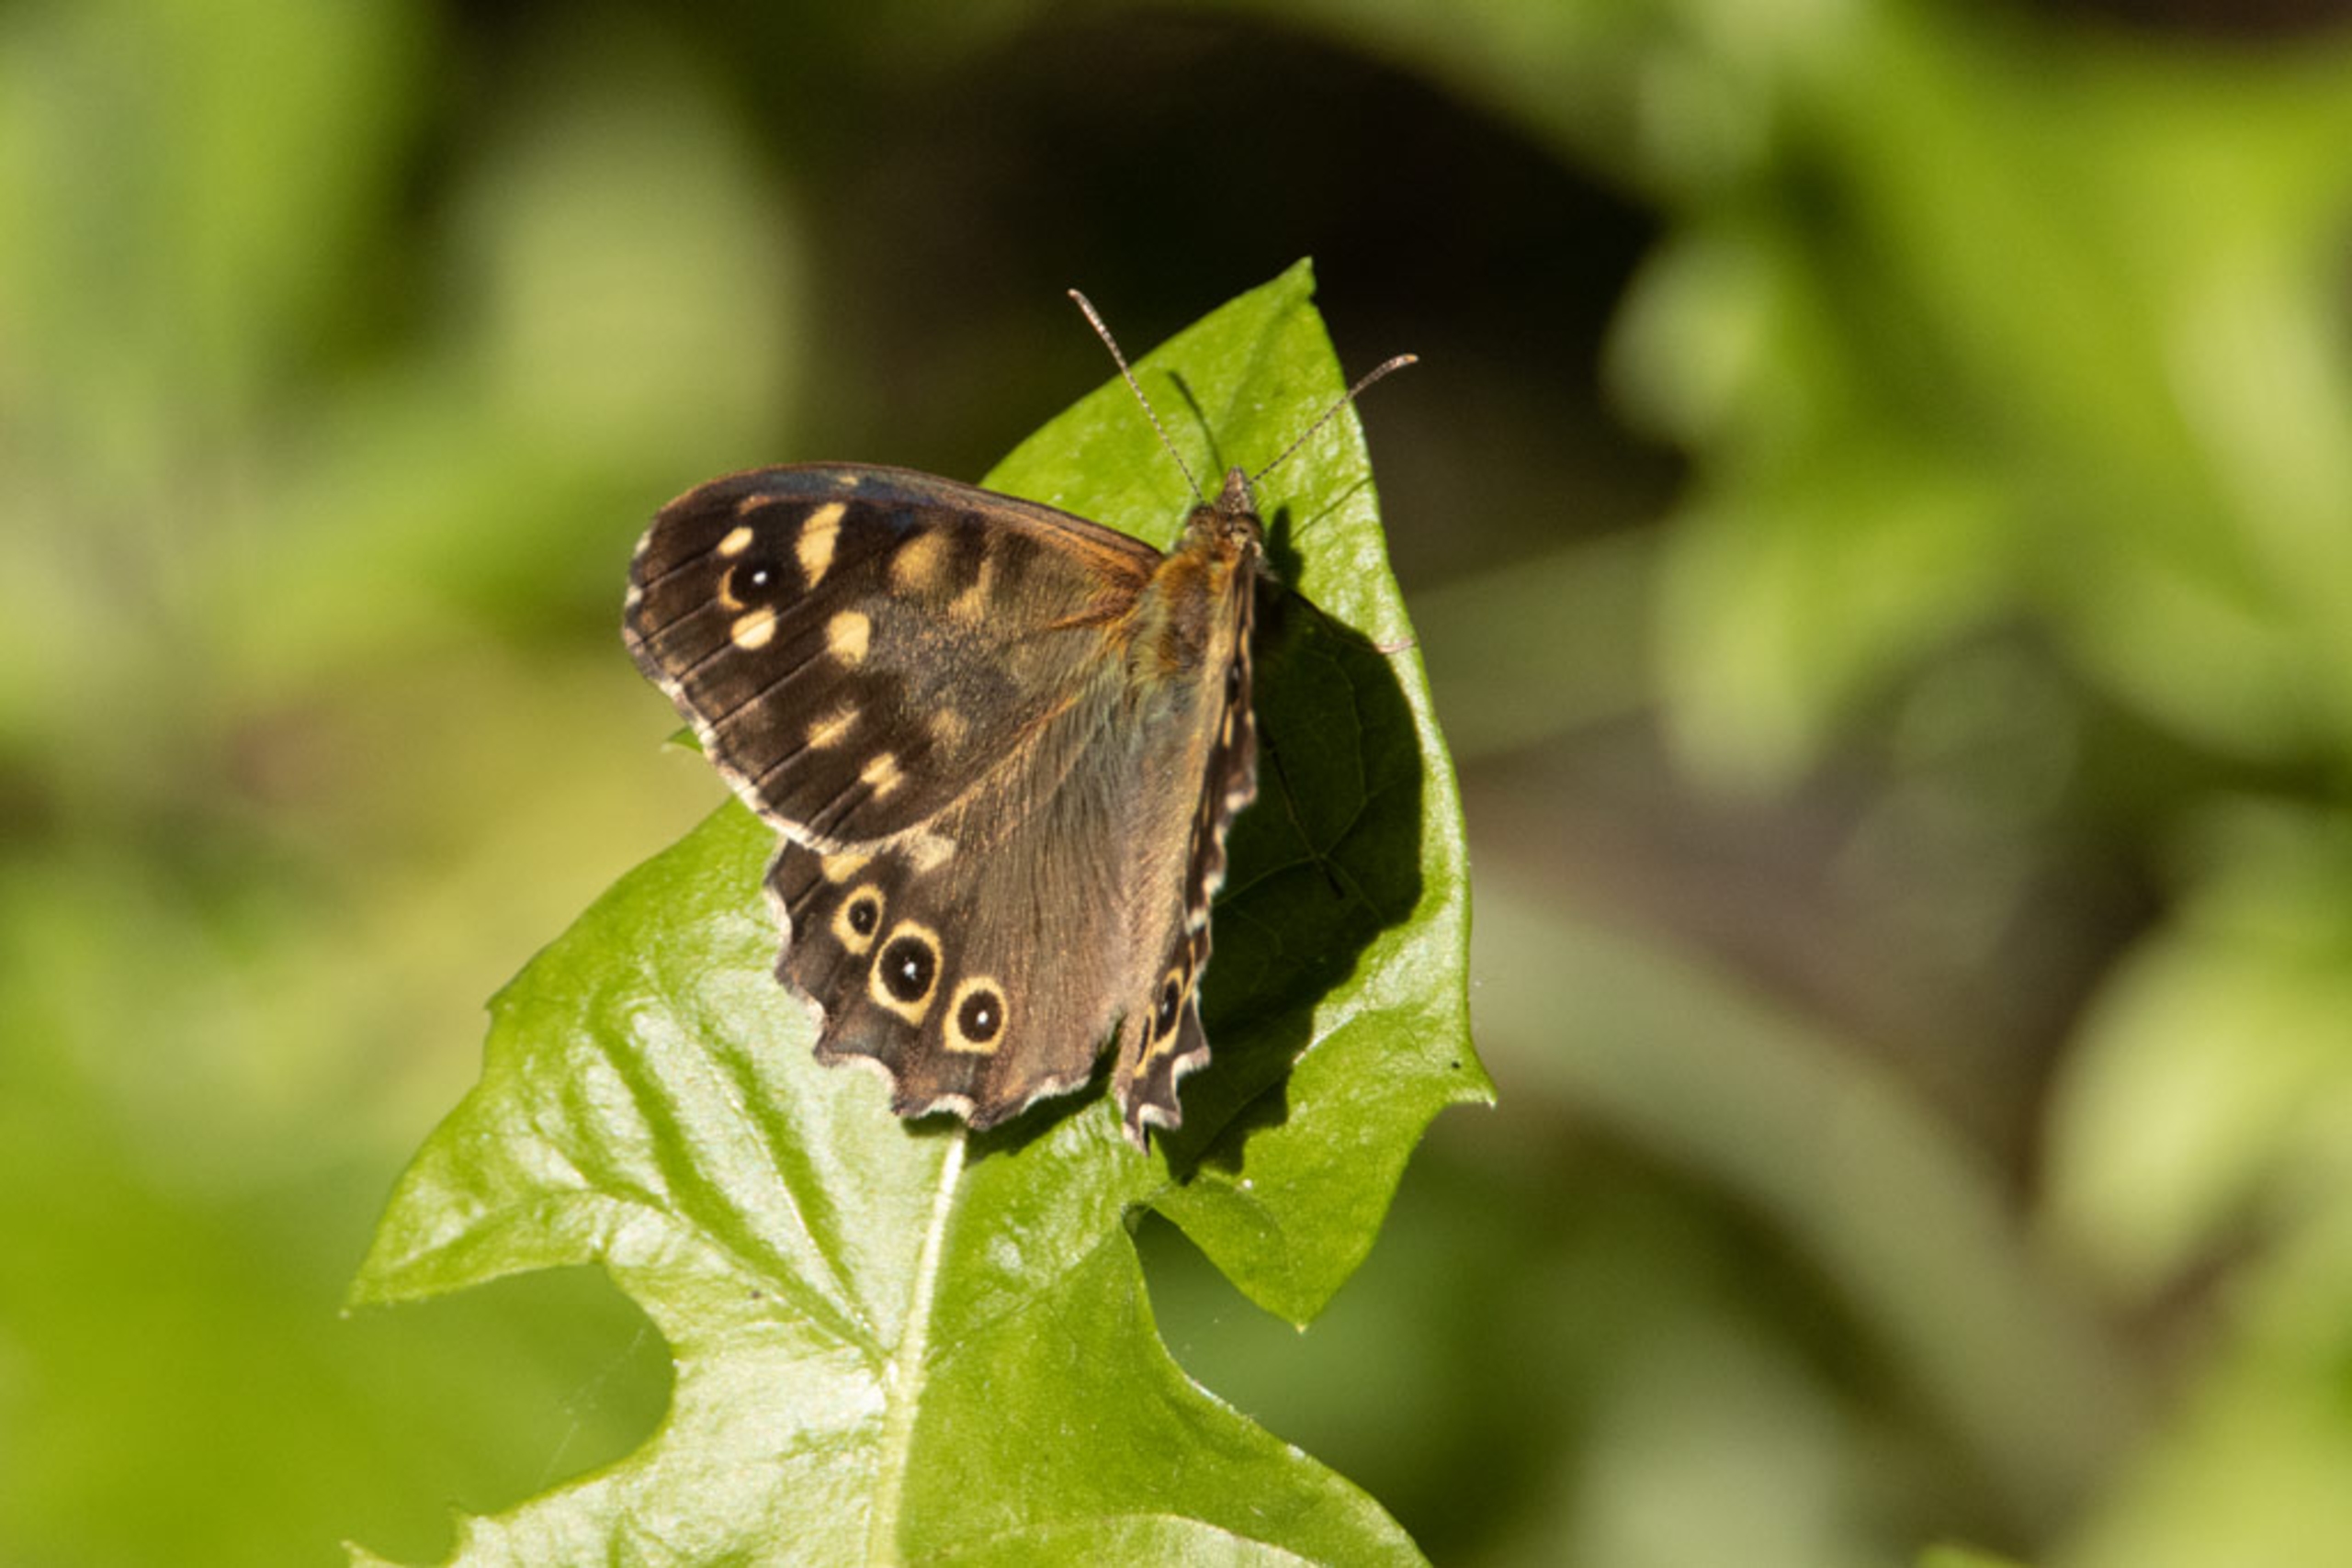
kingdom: Animalia
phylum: Arthropoda
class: Insecta
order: Lepidoptera
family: Nymphalidae
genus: Pararge
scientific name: Pararge aegeria
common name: Skovrandøje
